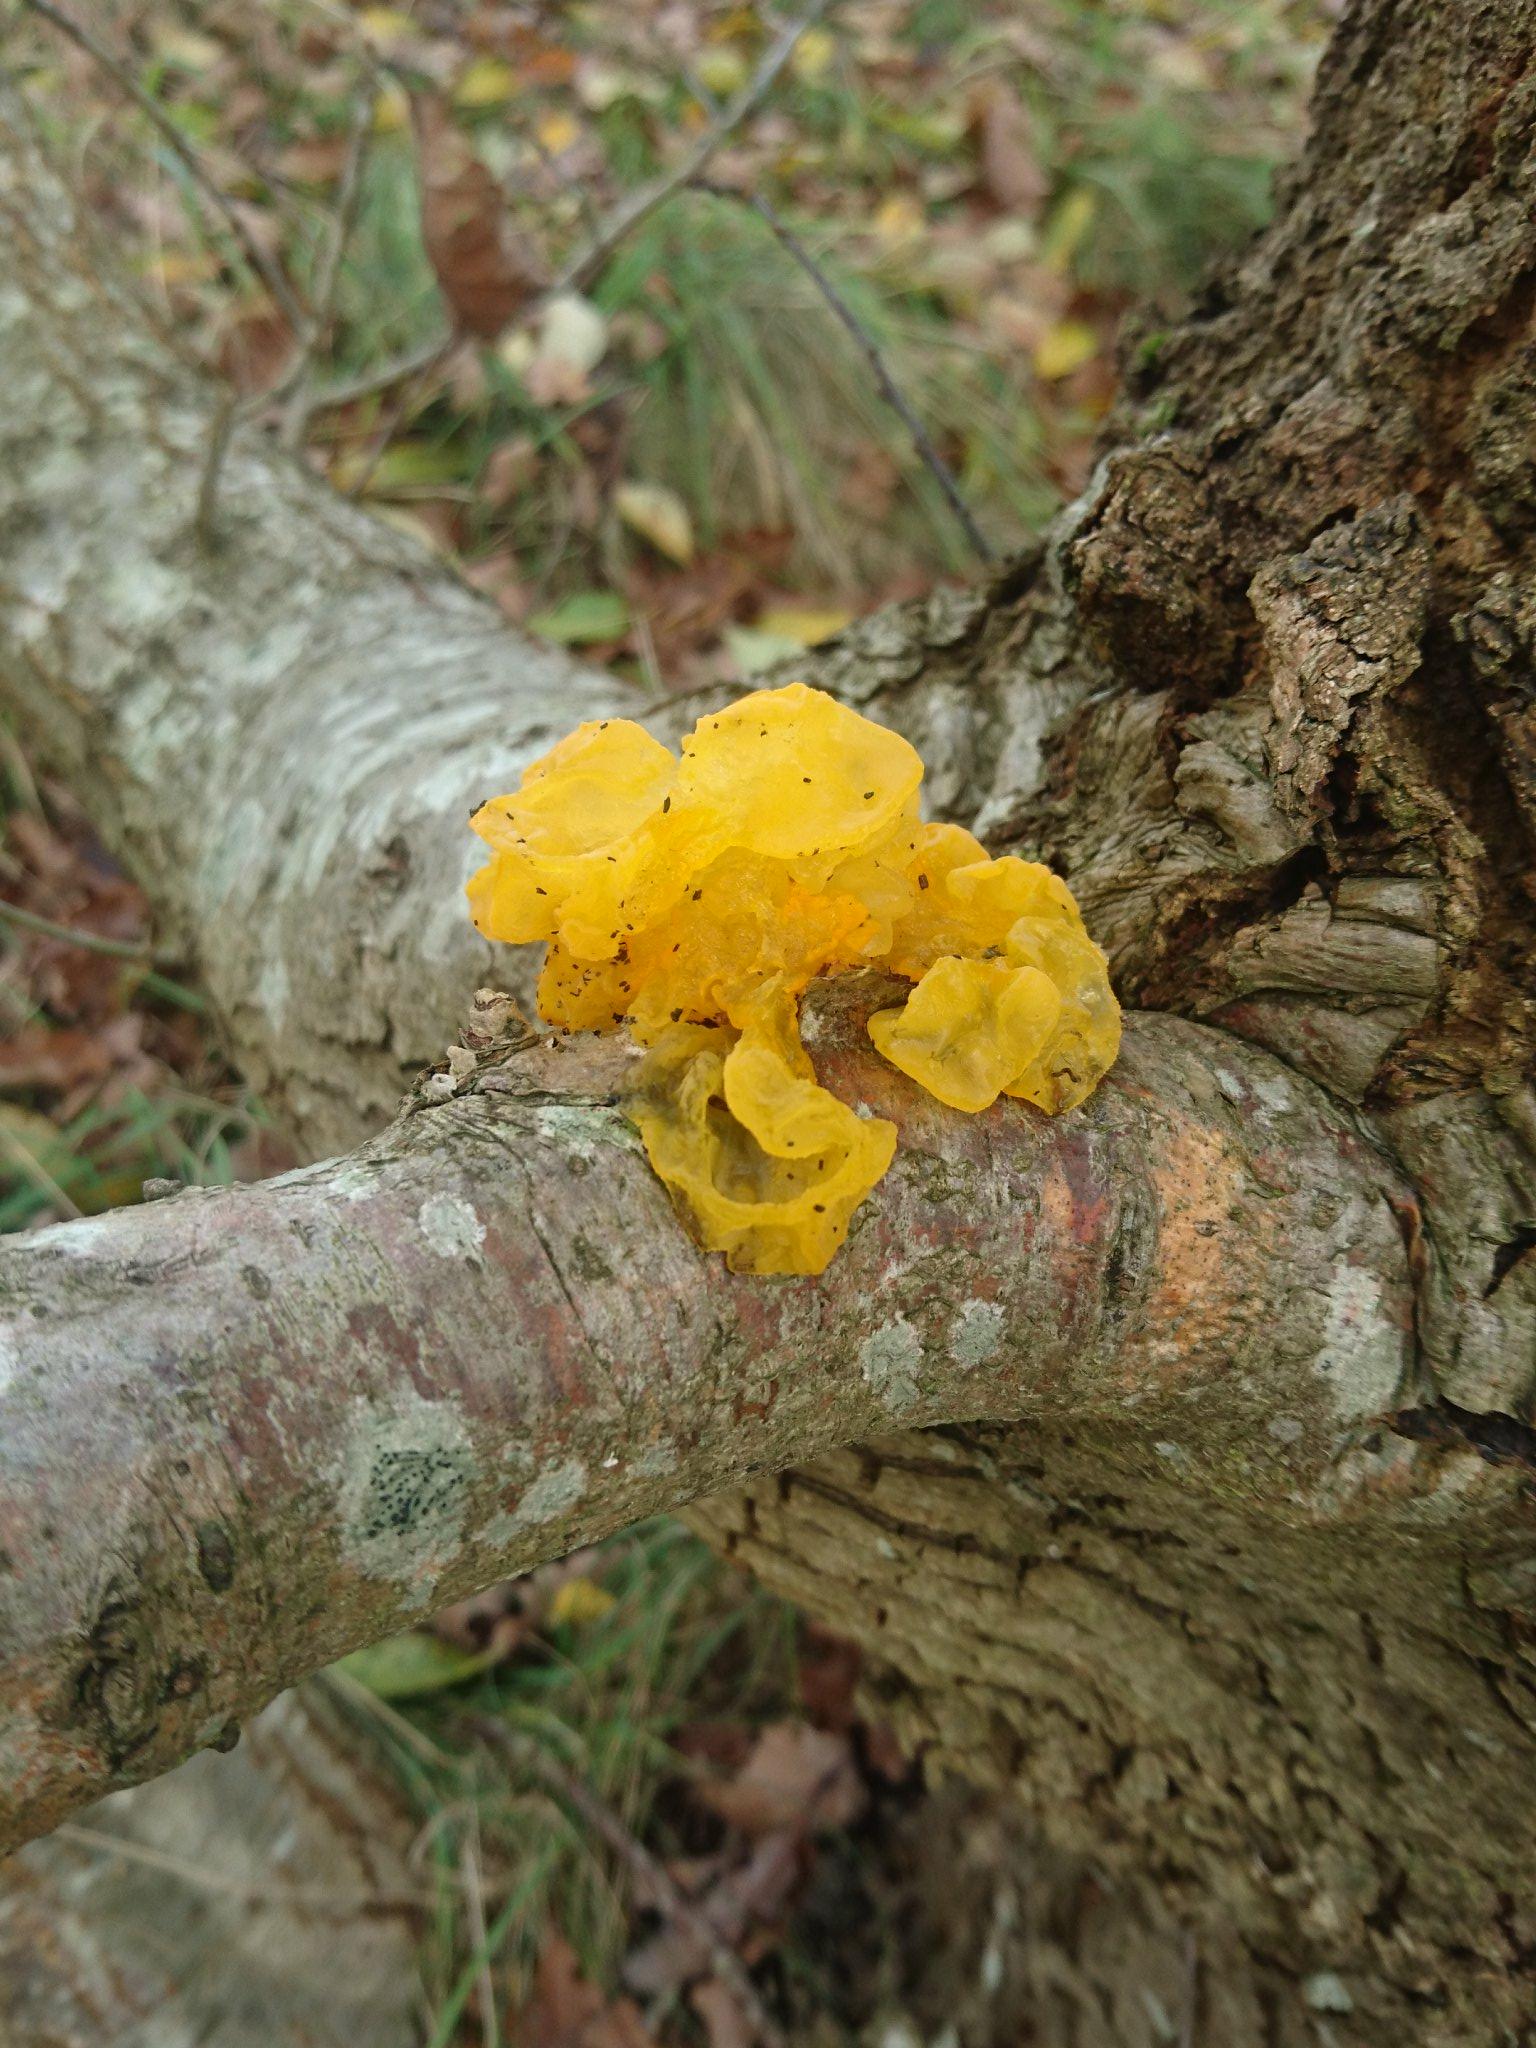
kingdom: Fungi
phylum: Basidiomycota
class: Tremellomycetes
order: Tremellales
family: Tremellaceae
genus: Tremella
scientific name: Tremella mesenterica
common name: gul bævresvamp
